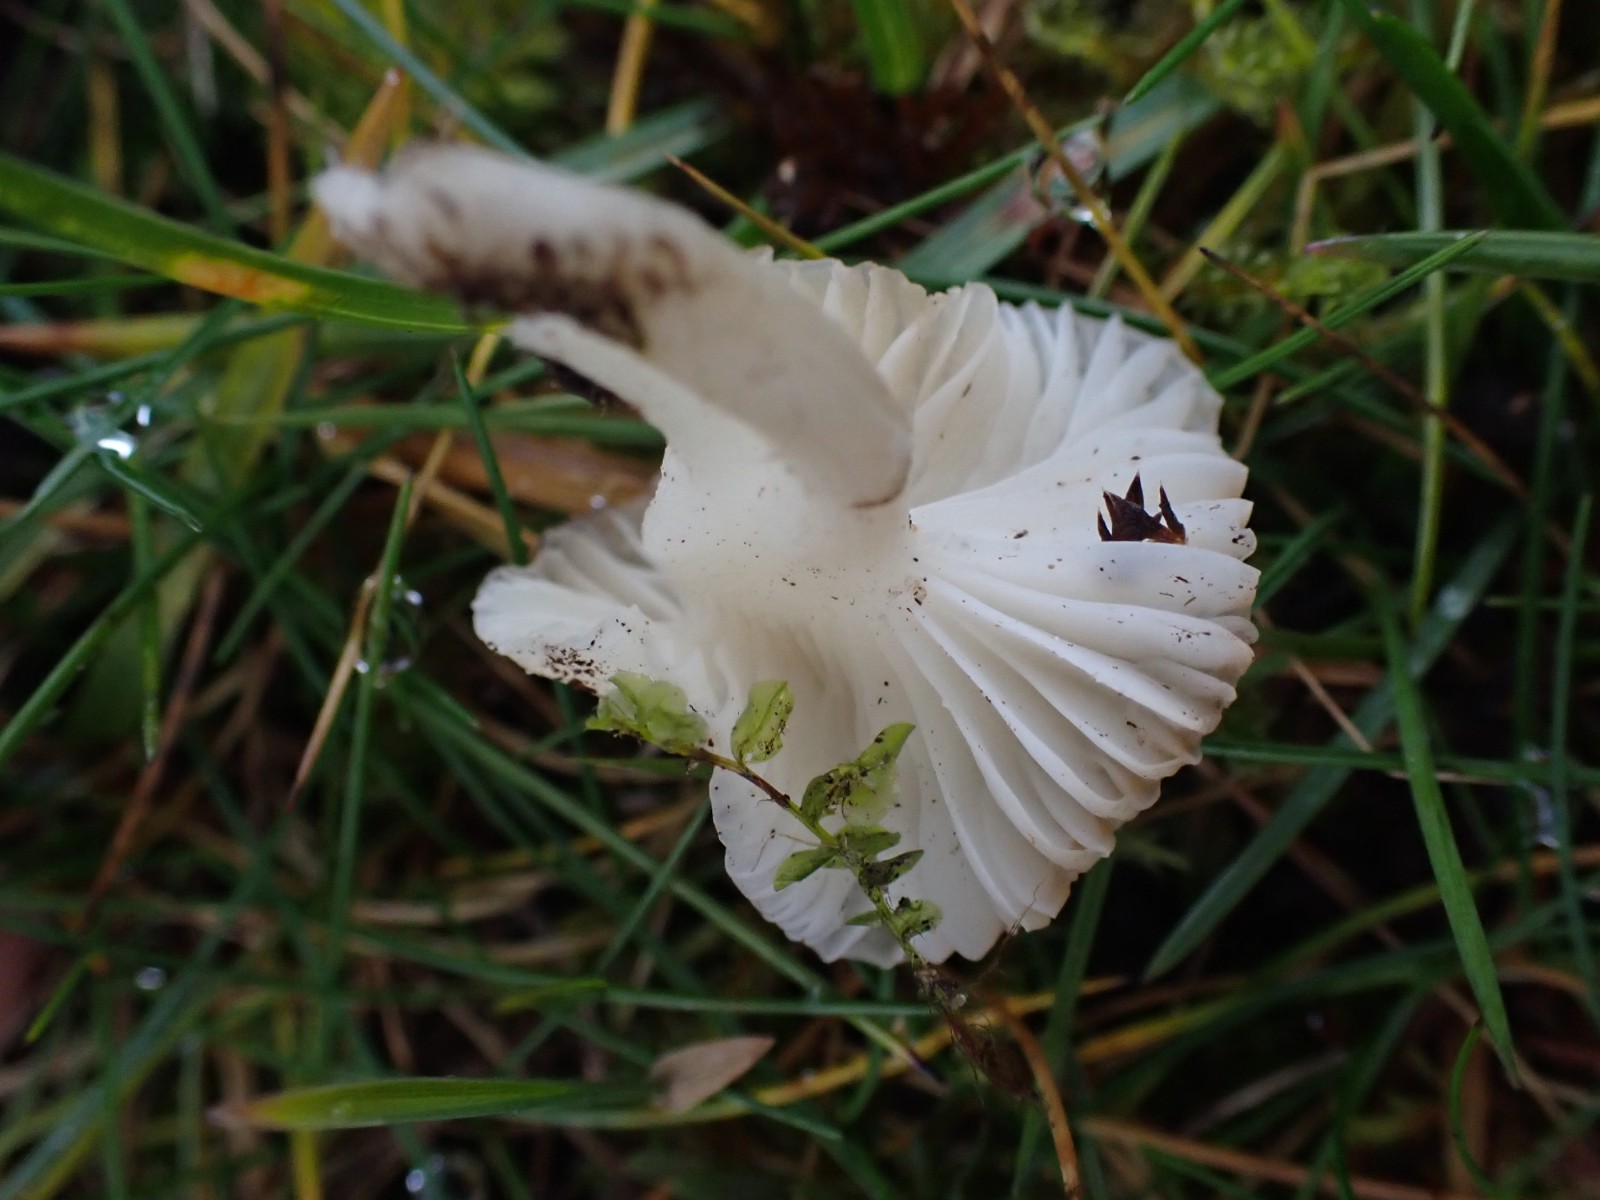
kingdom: Fungi
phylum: Basidiomycota
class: Agaricomycetes
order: Agaricales
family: Hygrophoraceae
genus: Cuphophyllus
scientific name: Cuphophyllus virgineus
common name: snehvid vokshat
